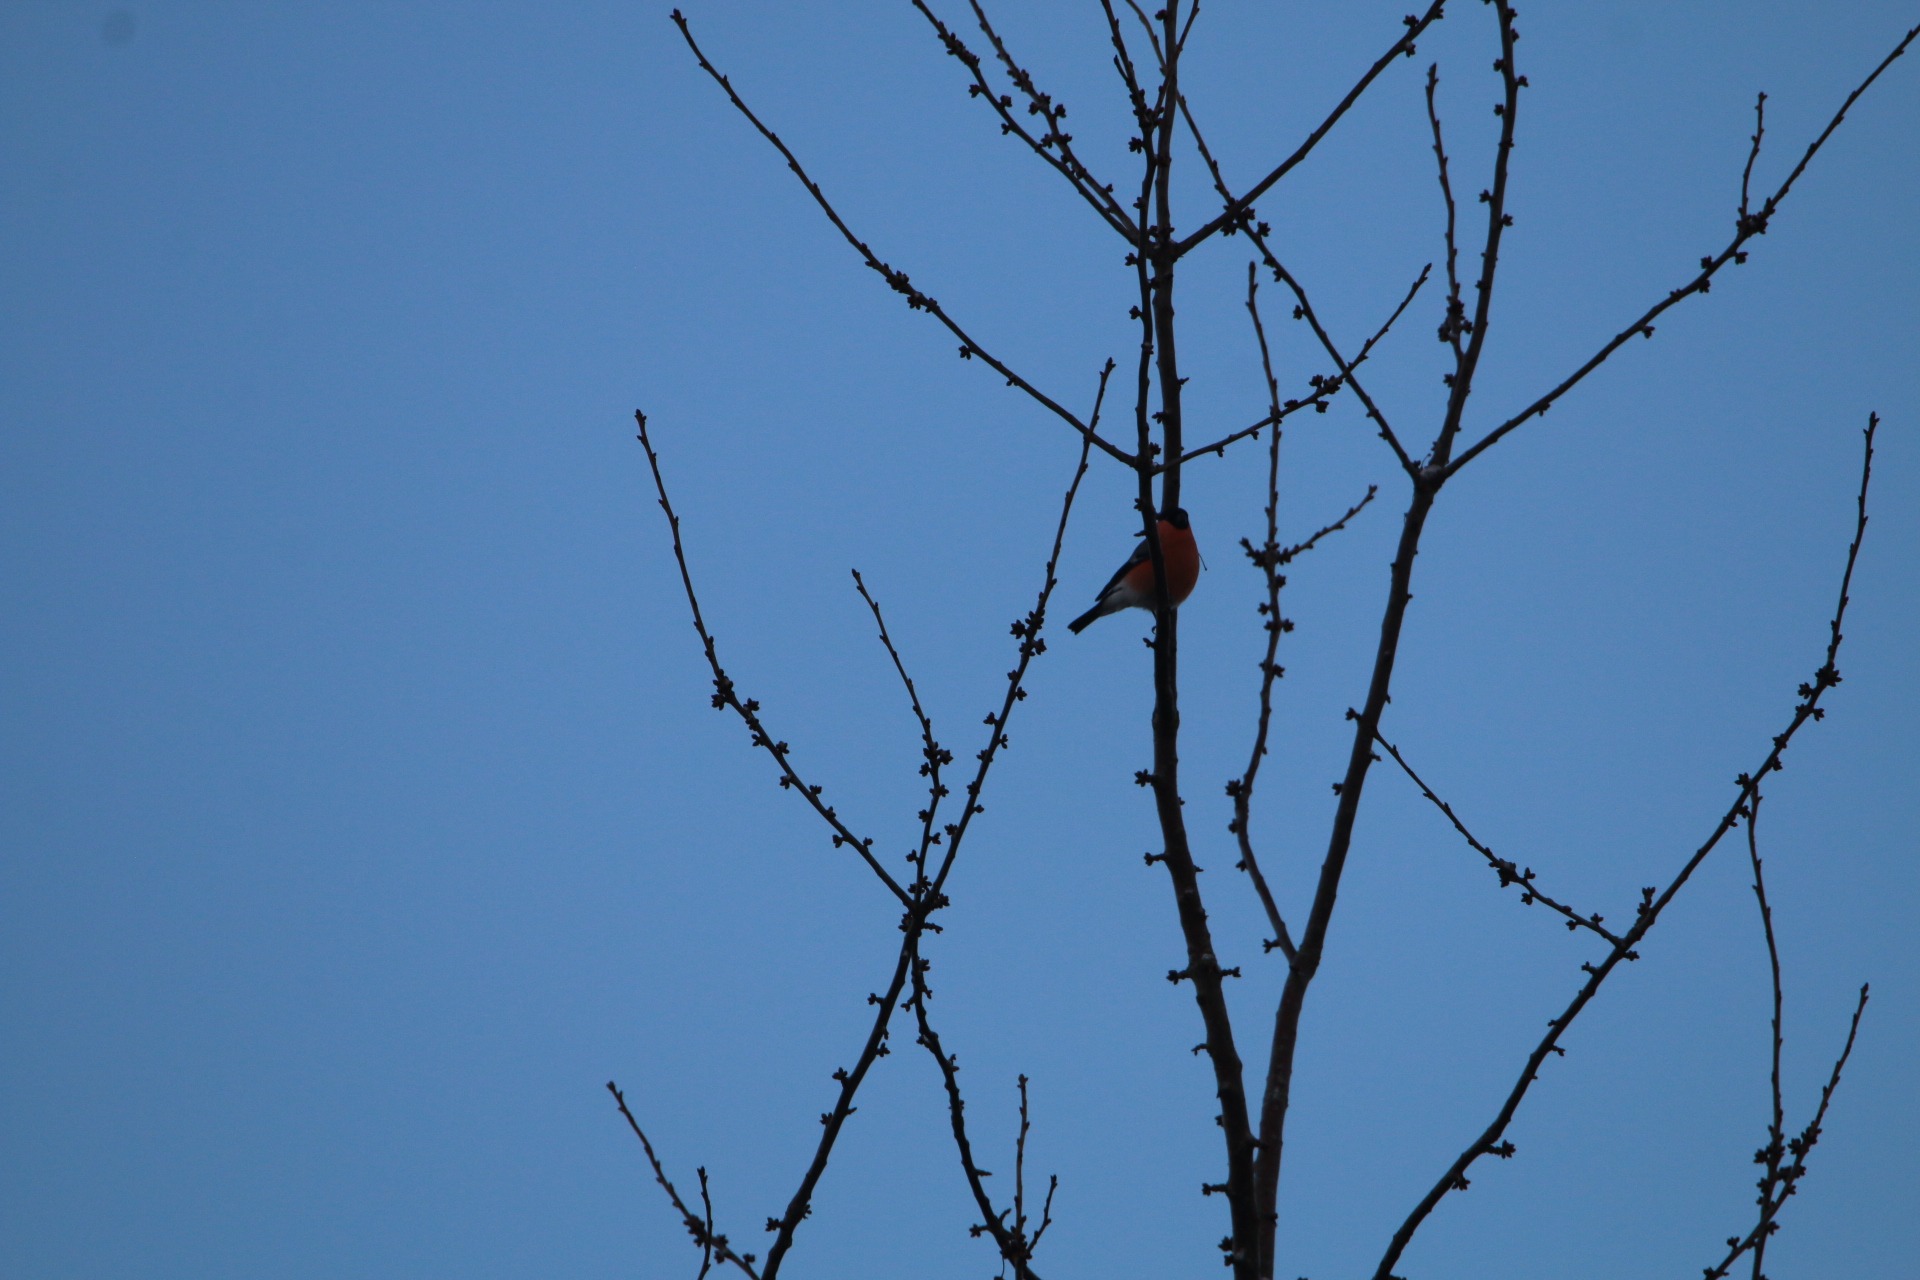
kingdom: Animalia
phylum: Chordata
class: Aves
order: Passeriformes
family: Fringillidae
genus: Pyrrhula
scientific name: Pyrrhula pyrrhula
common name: Dompap
